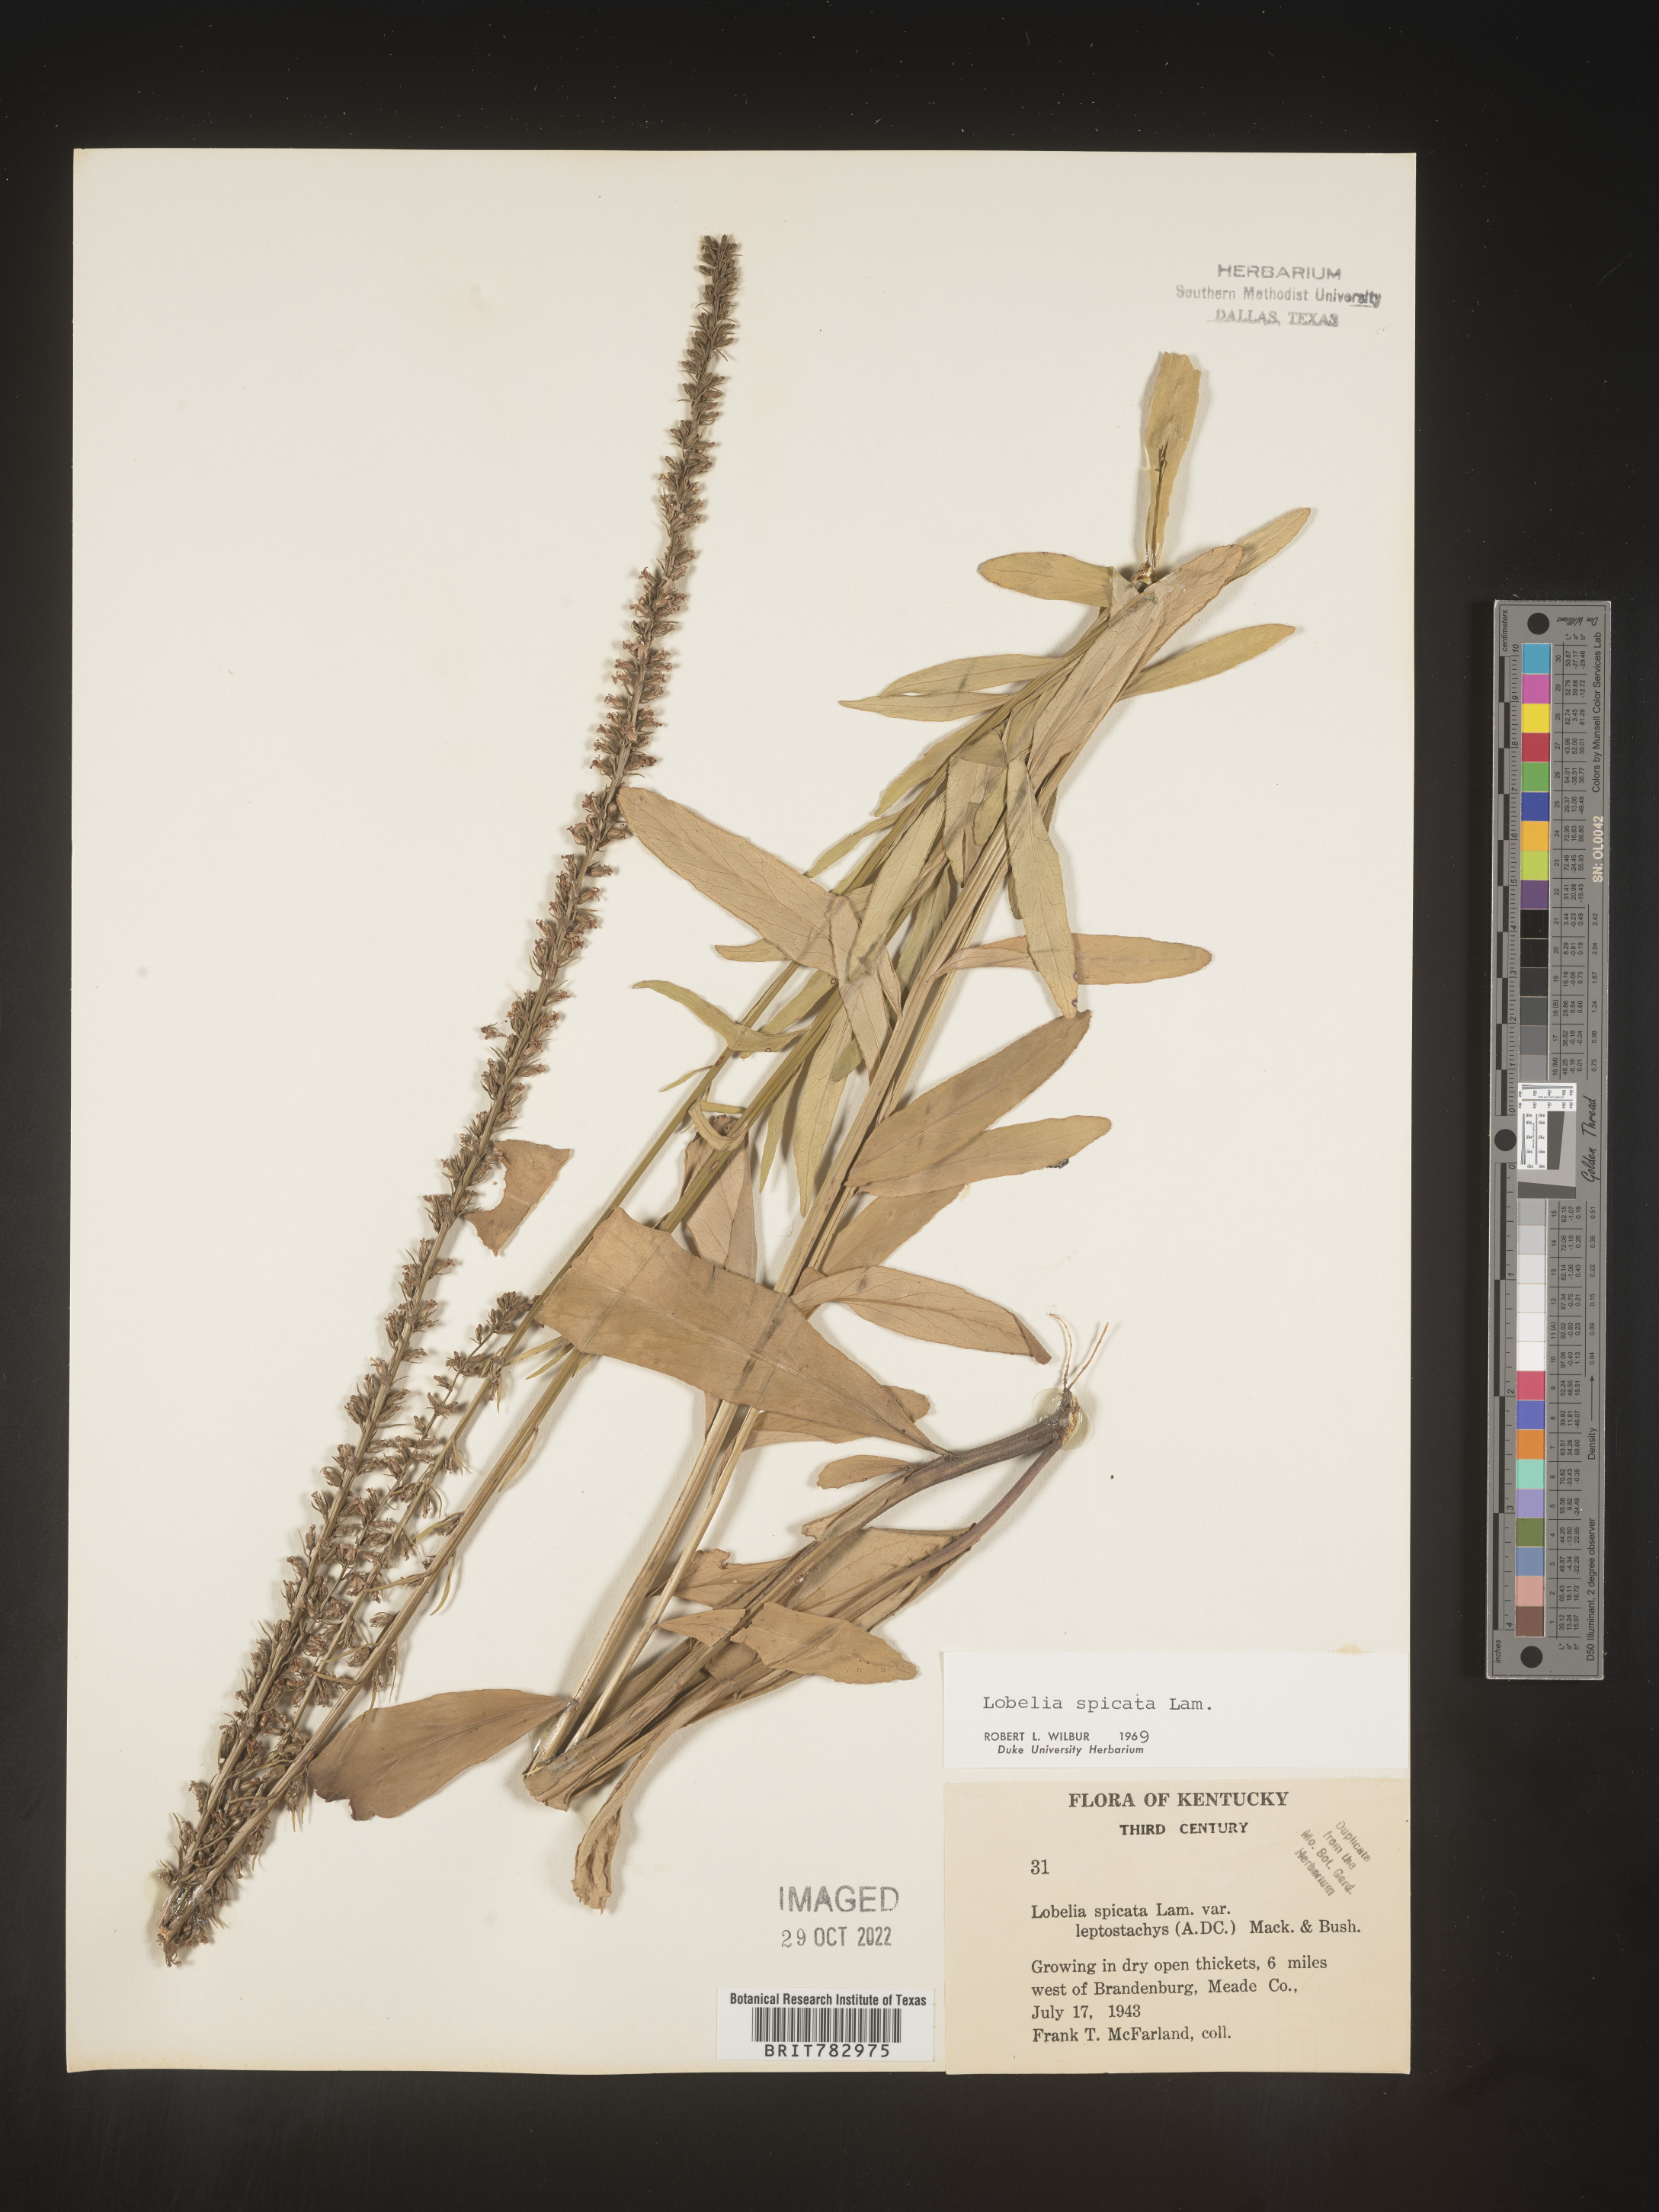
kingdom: Plantae
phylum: Tracheophyta
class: Magnoliopsida
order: Asterales
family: Campanulaceae
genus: Lobelia
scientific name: Lobelia spicata
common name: Pale-spike lobelia
